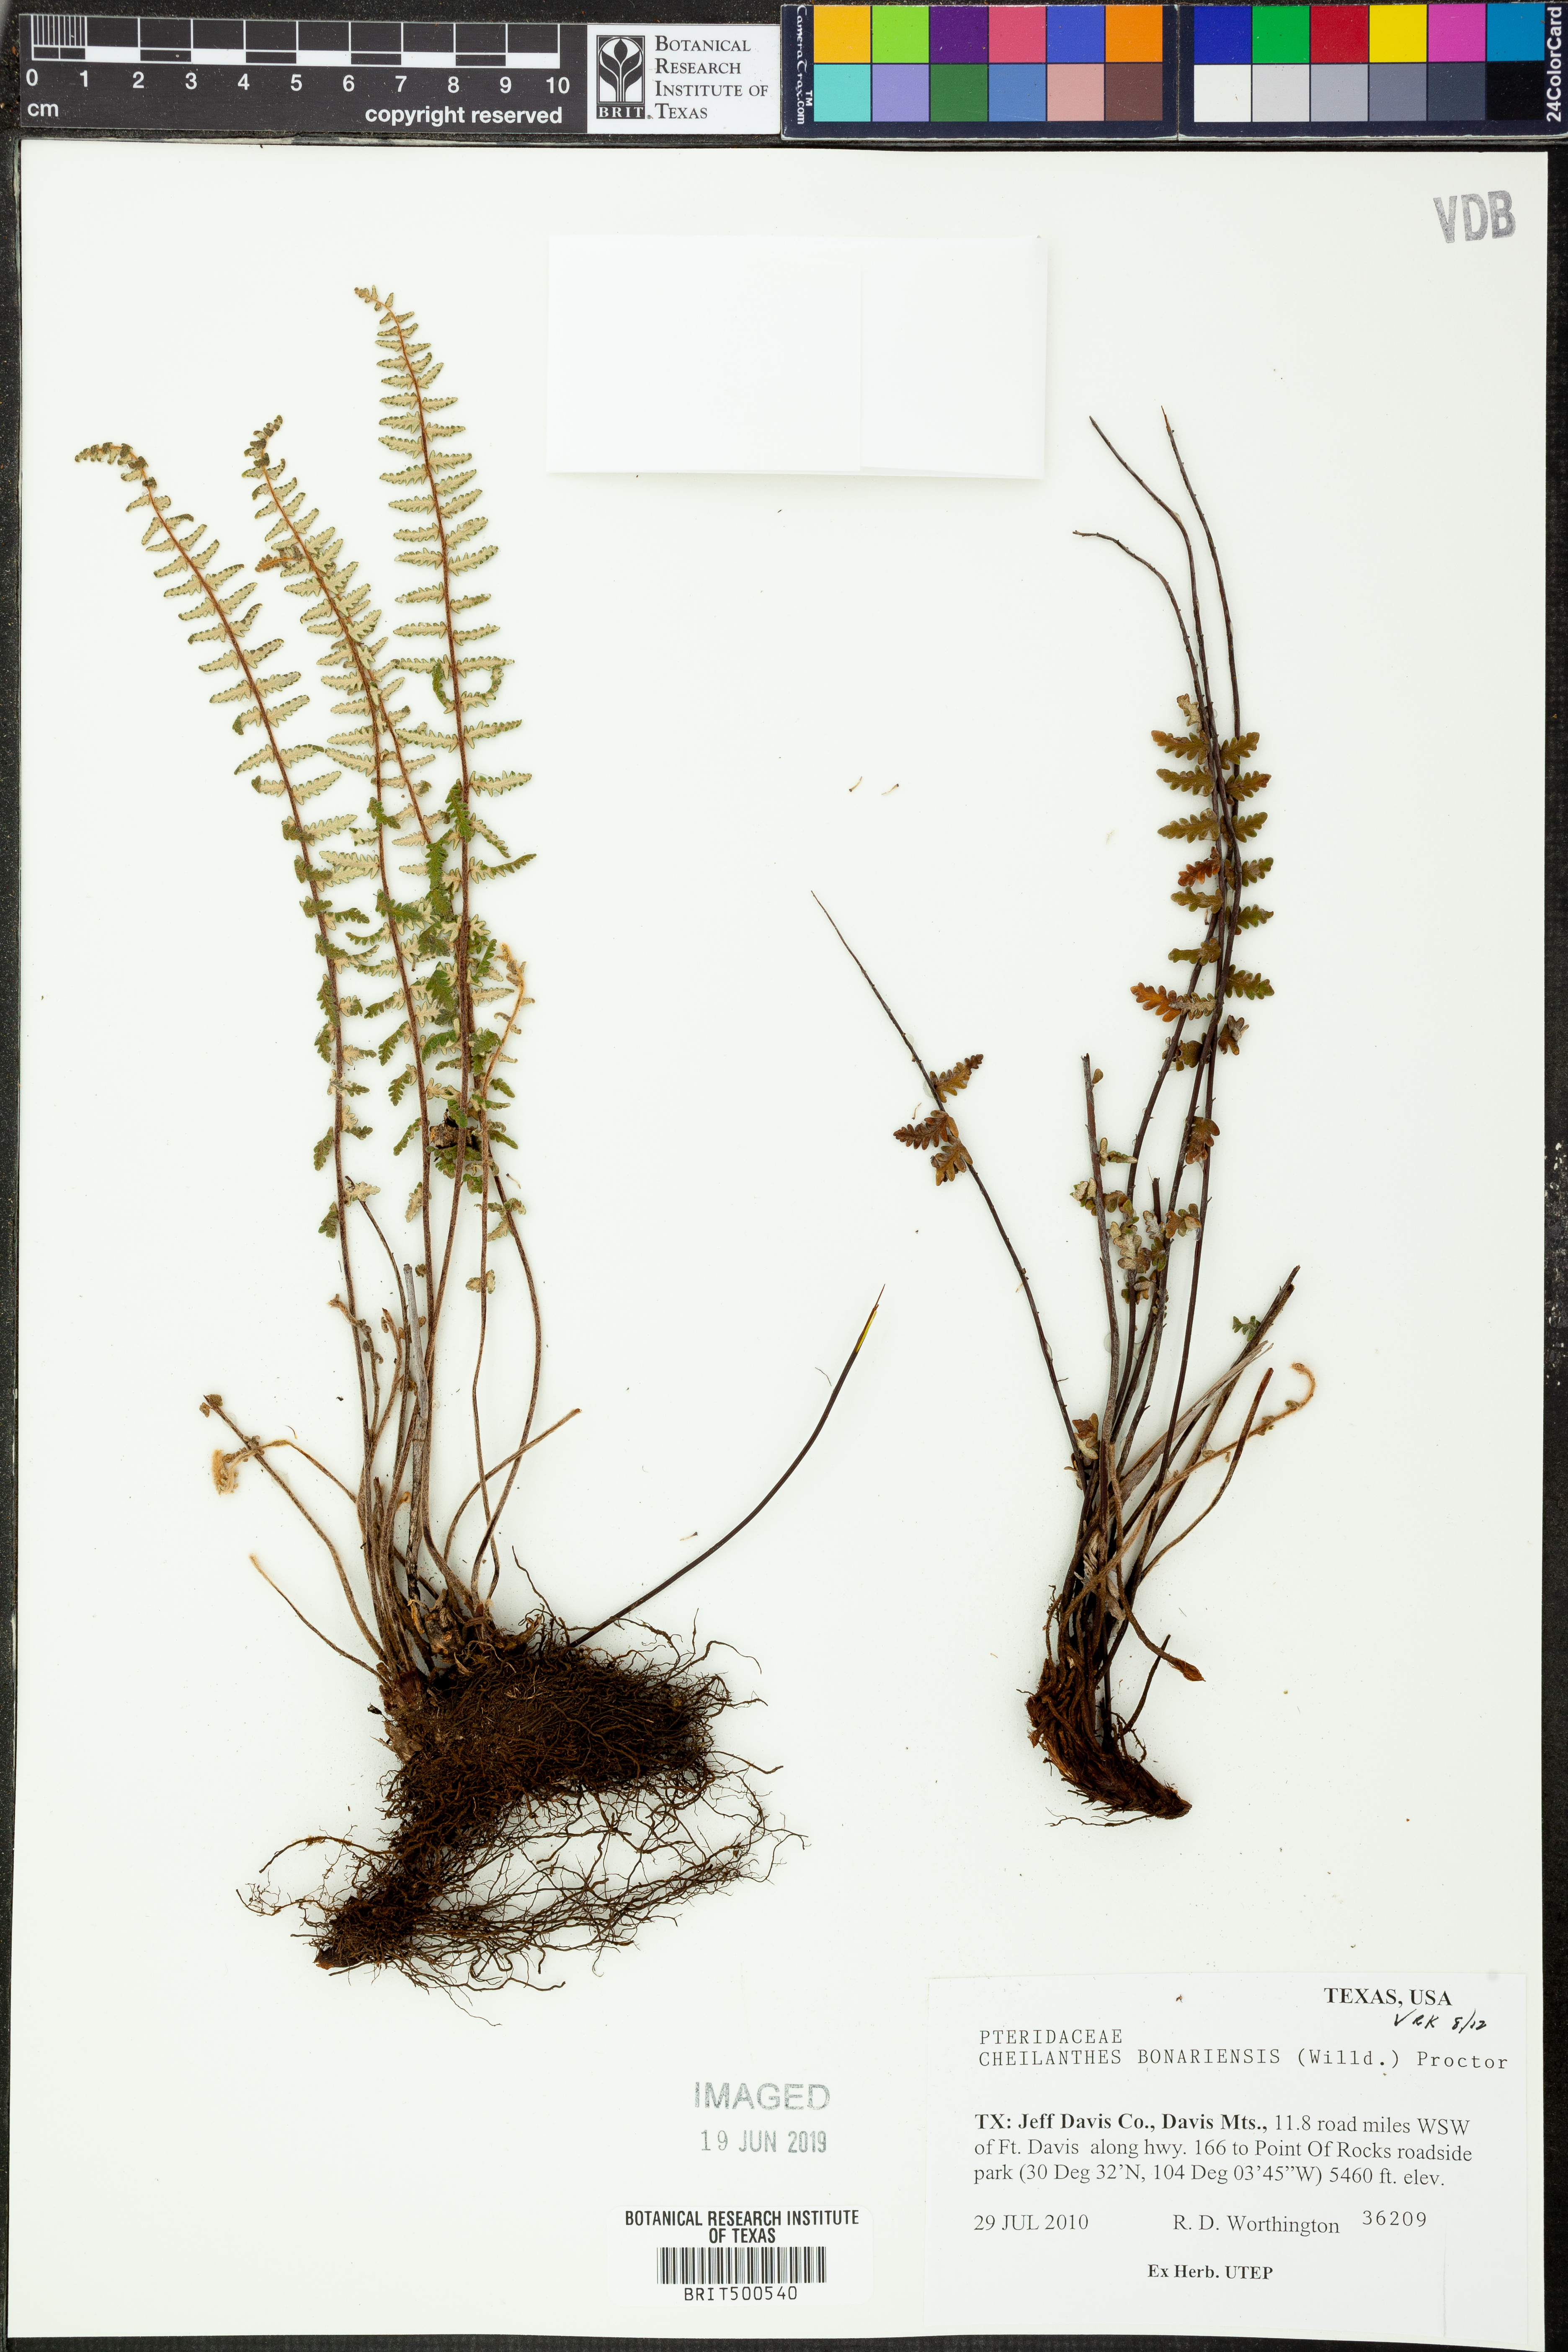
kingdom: Plantae
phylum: Tracheophyta
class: Polypodiopsida
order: Polypodiales
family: Pteridaceae
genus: Myriopteris
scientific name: Myriopteris aurea
